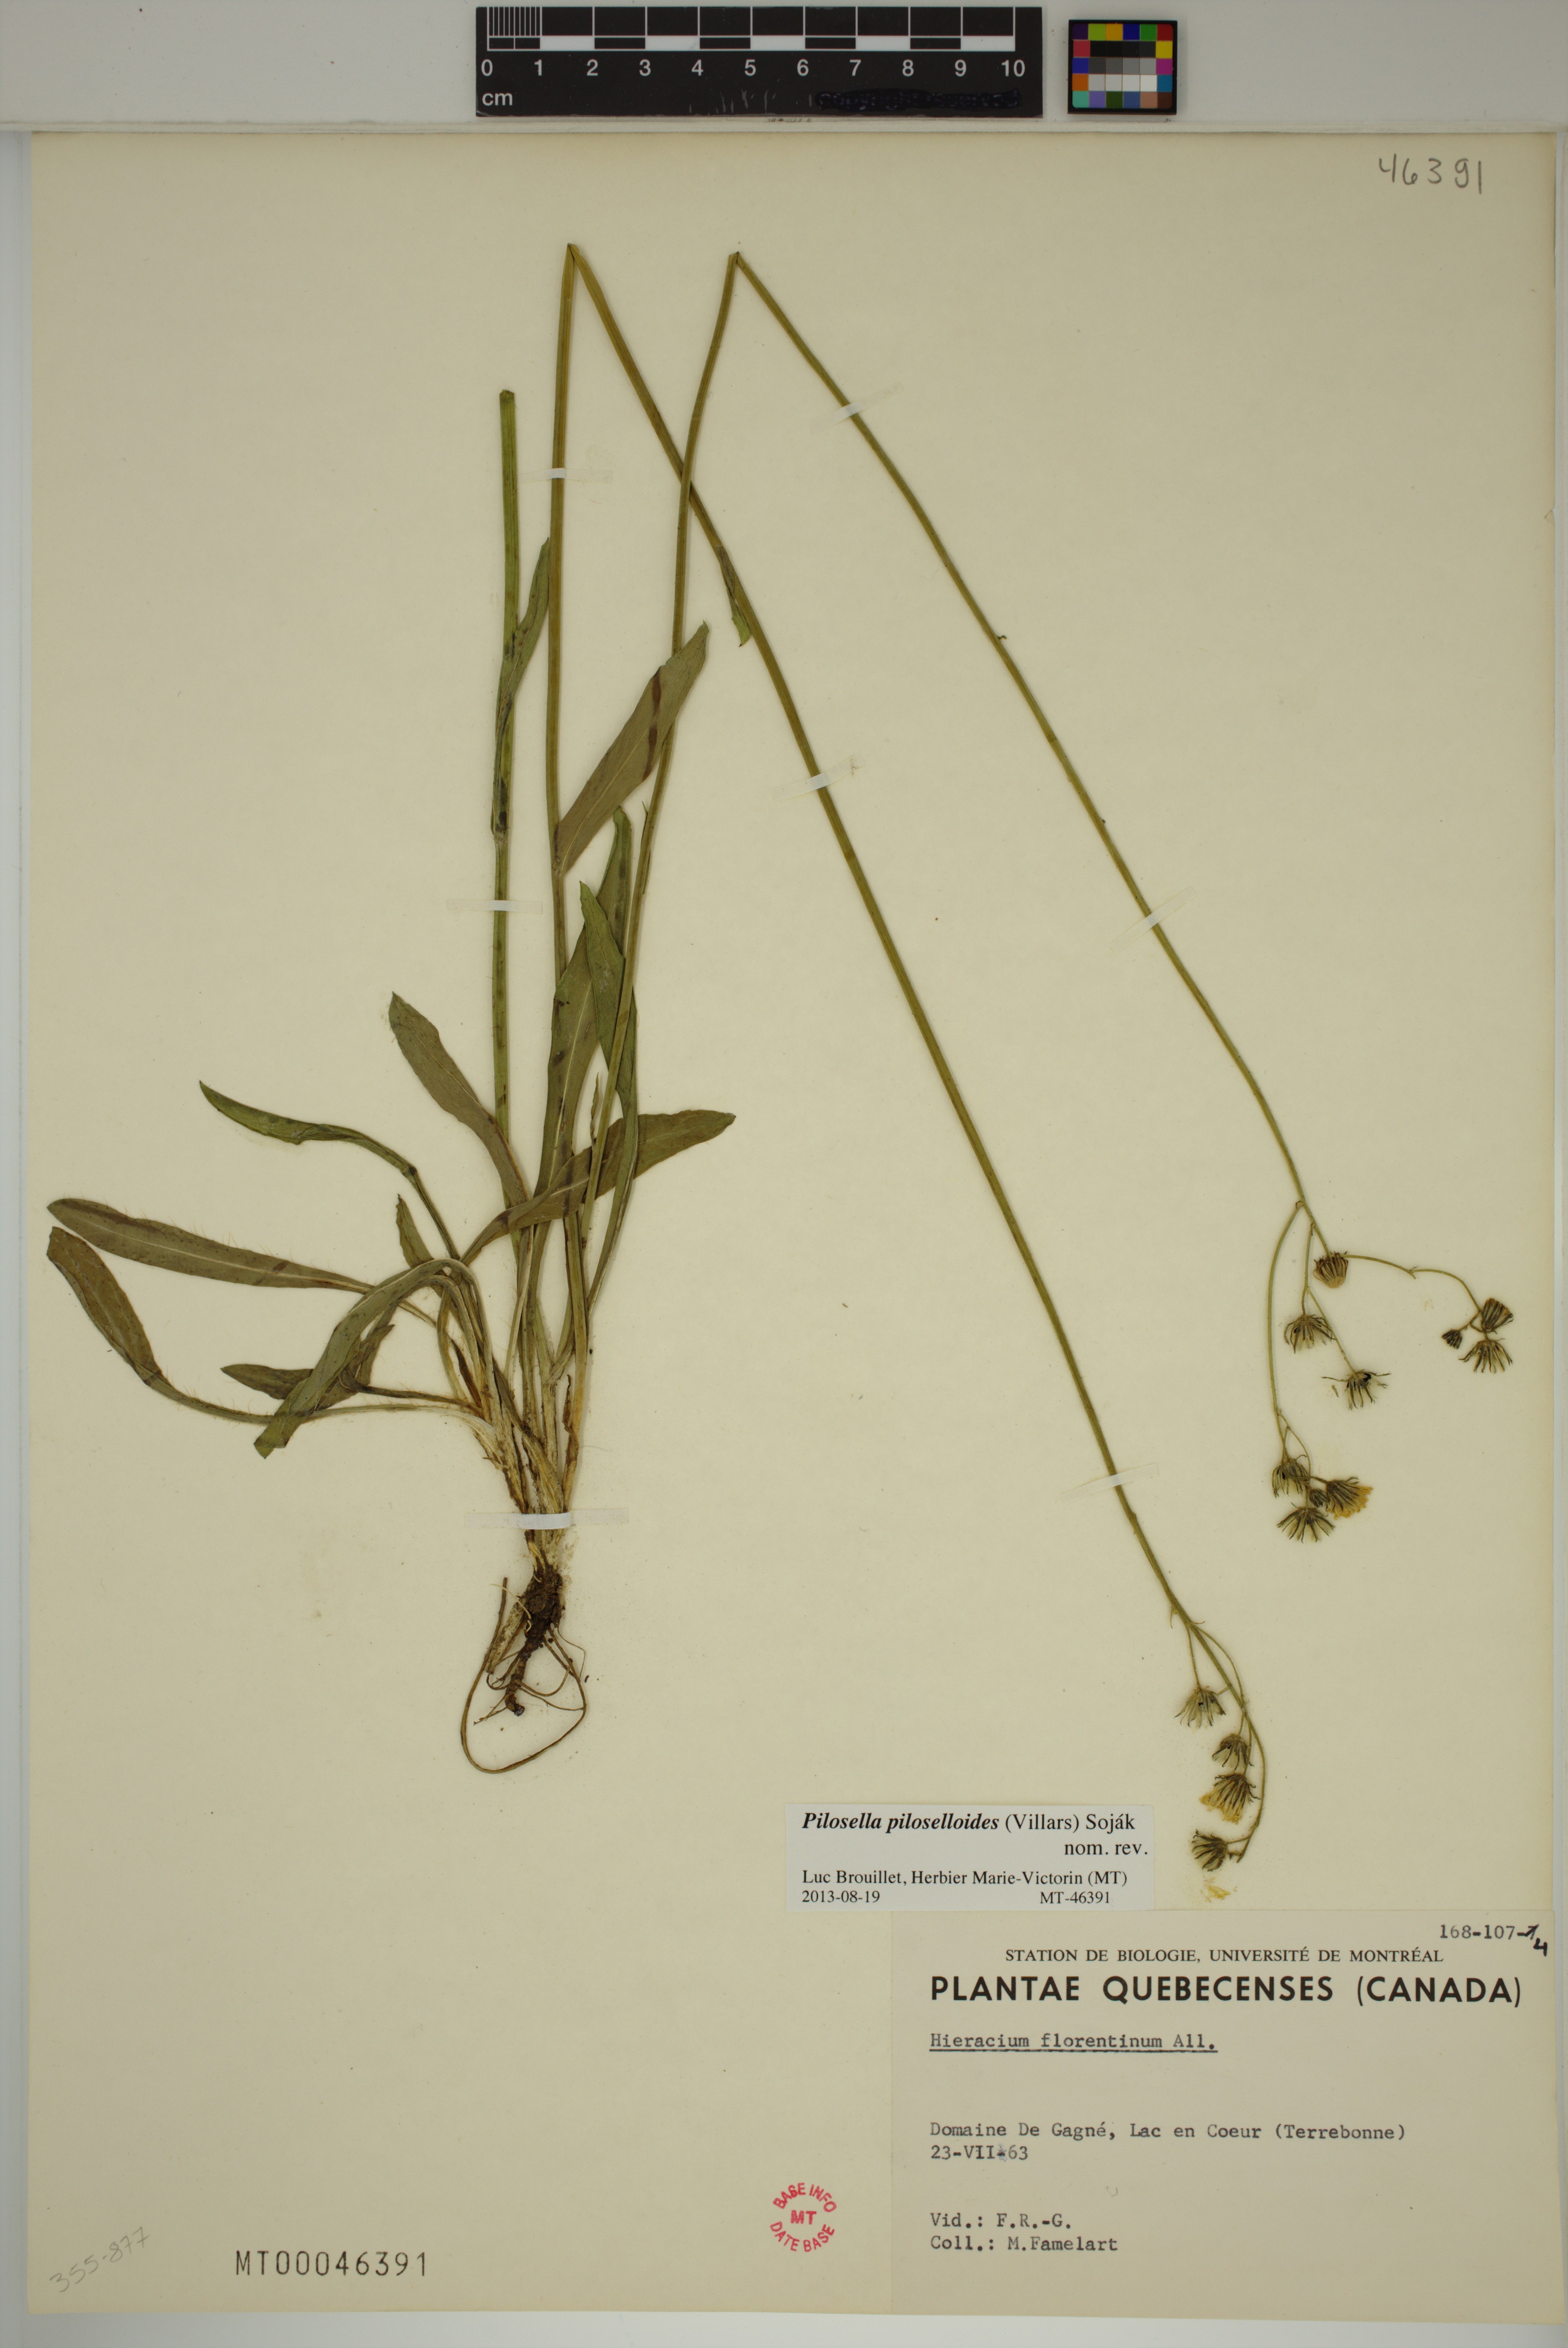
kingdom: Plantae
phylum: Tracheophyta
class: Magnoliopsida
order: Asterales
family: Asteraceae
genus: Pilosella
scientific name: Pilosella piloselloides
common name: Glaucous king-devil
